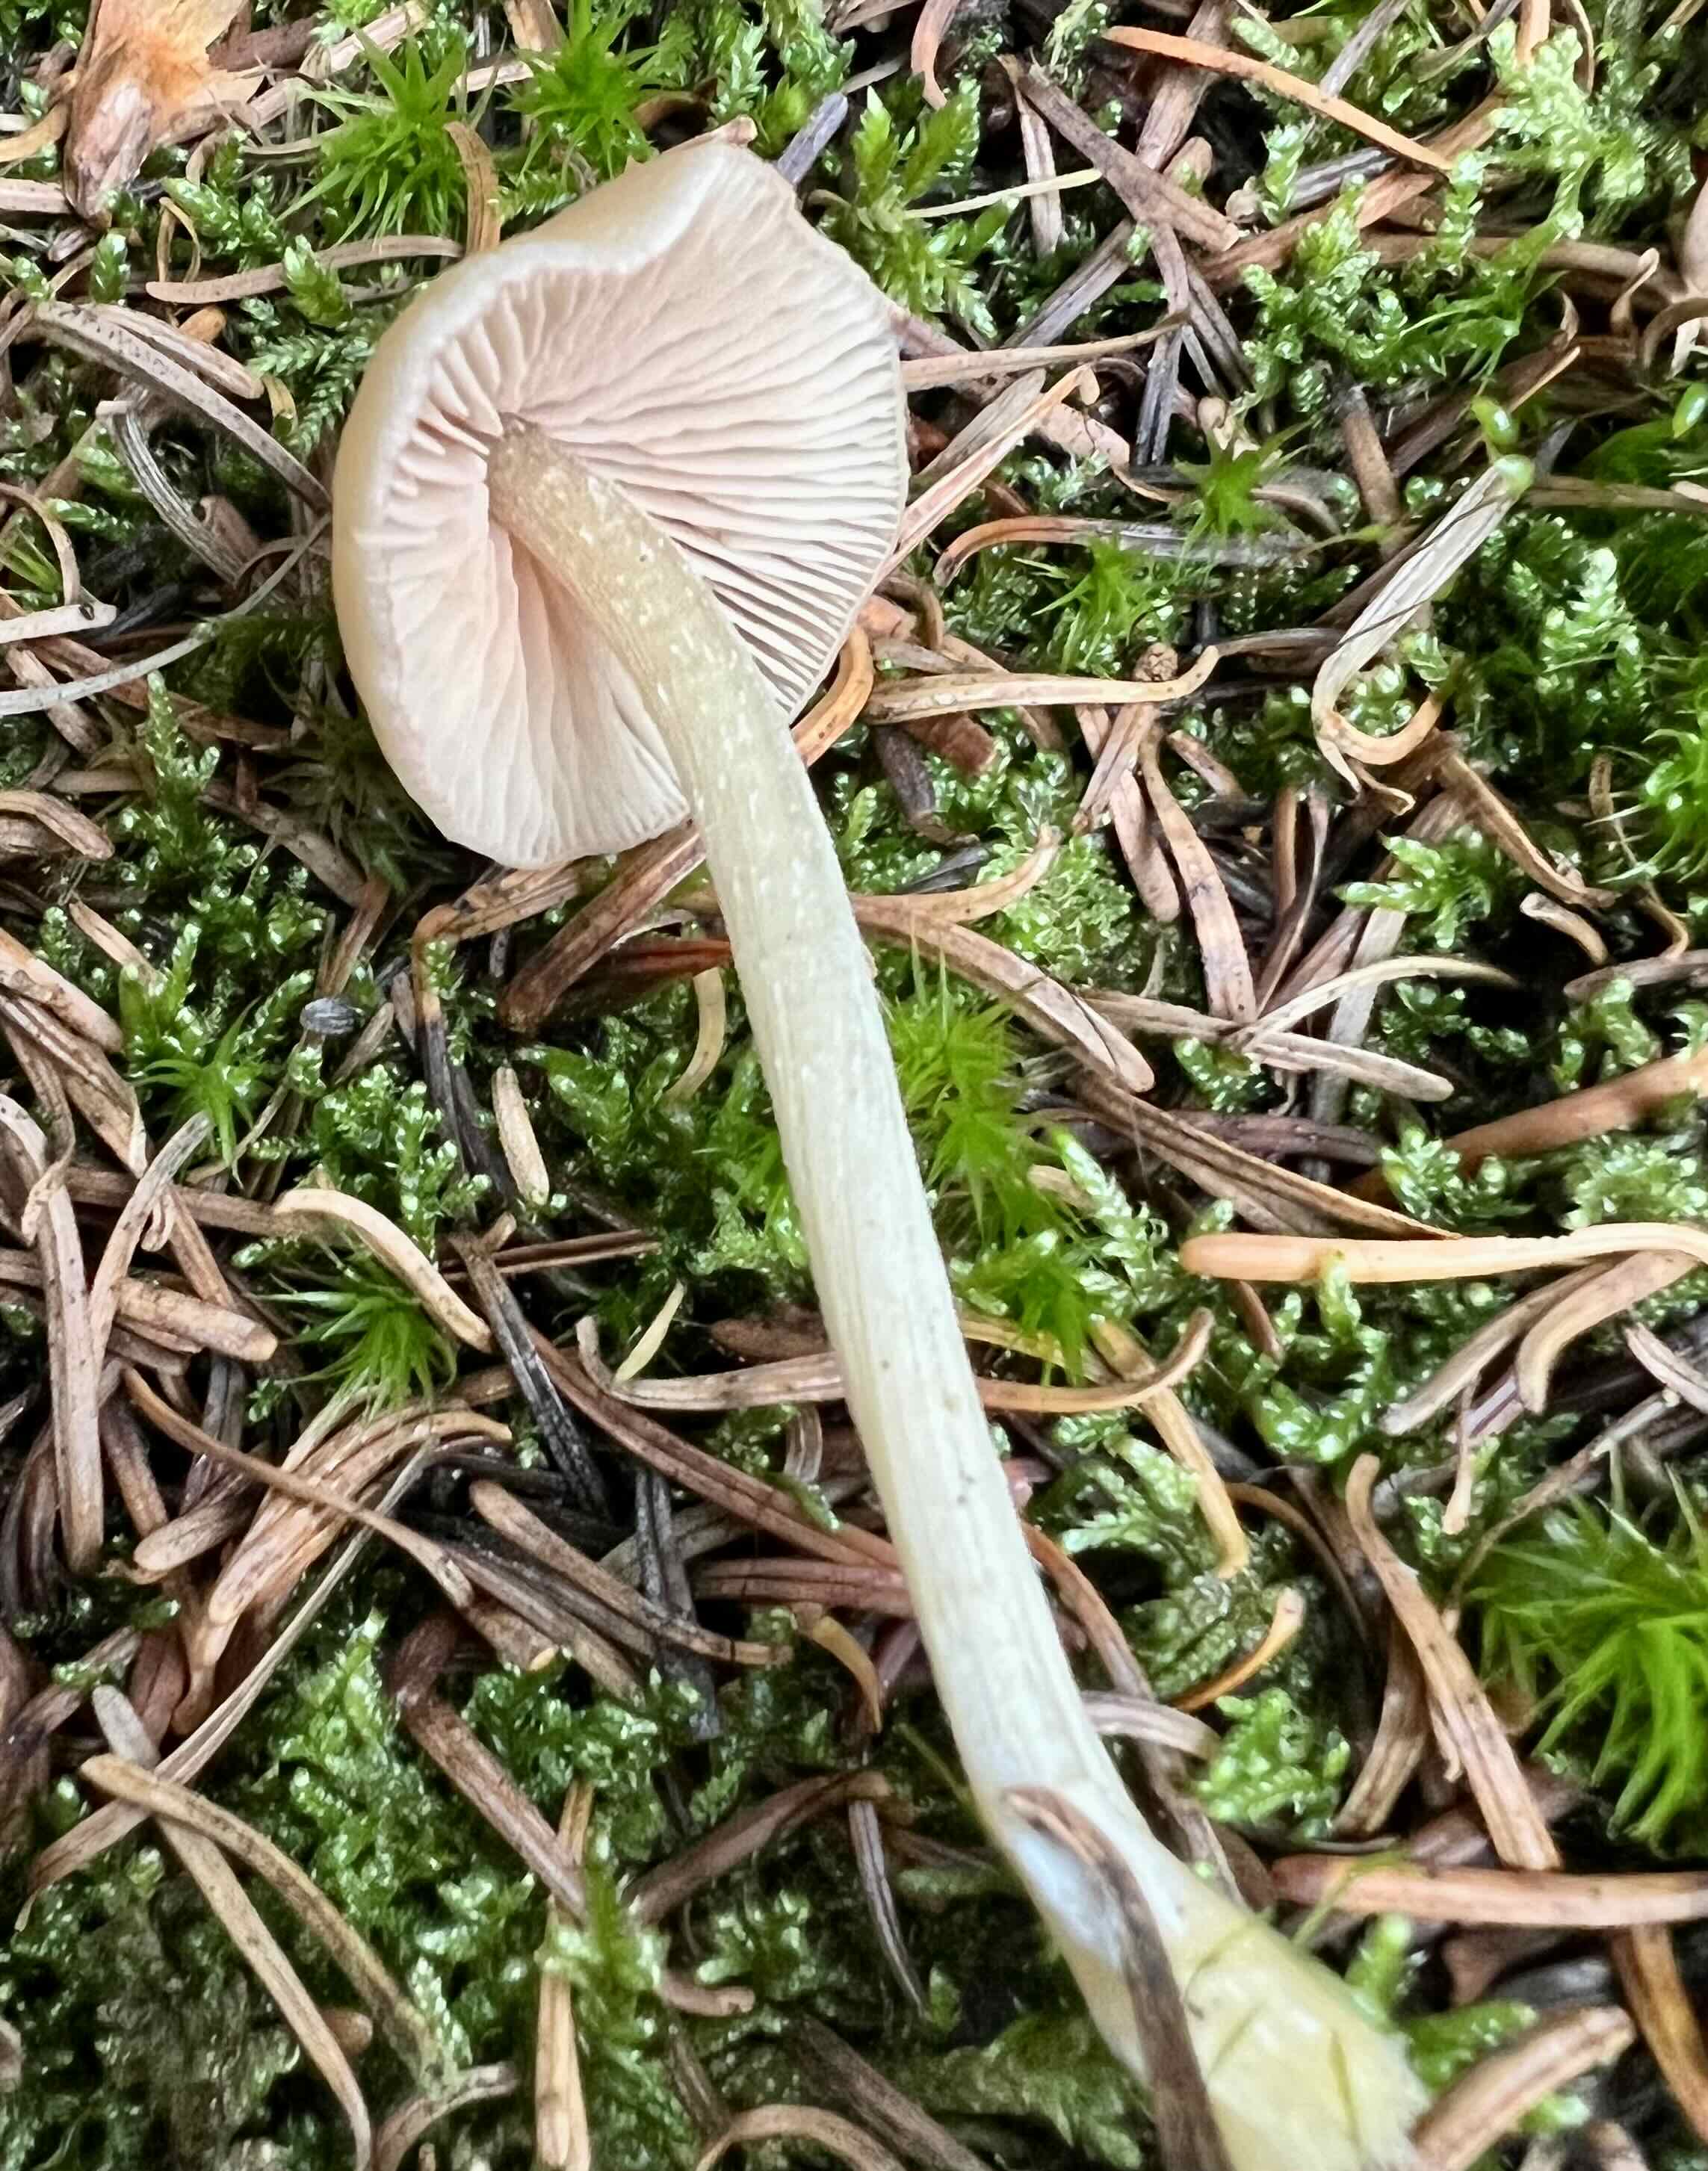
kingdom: Fungi
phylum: Basidiomycota
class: Agaricomycetes
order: Agaricales
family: Entolomataceae
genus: Entoloma
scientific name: Entoloma
